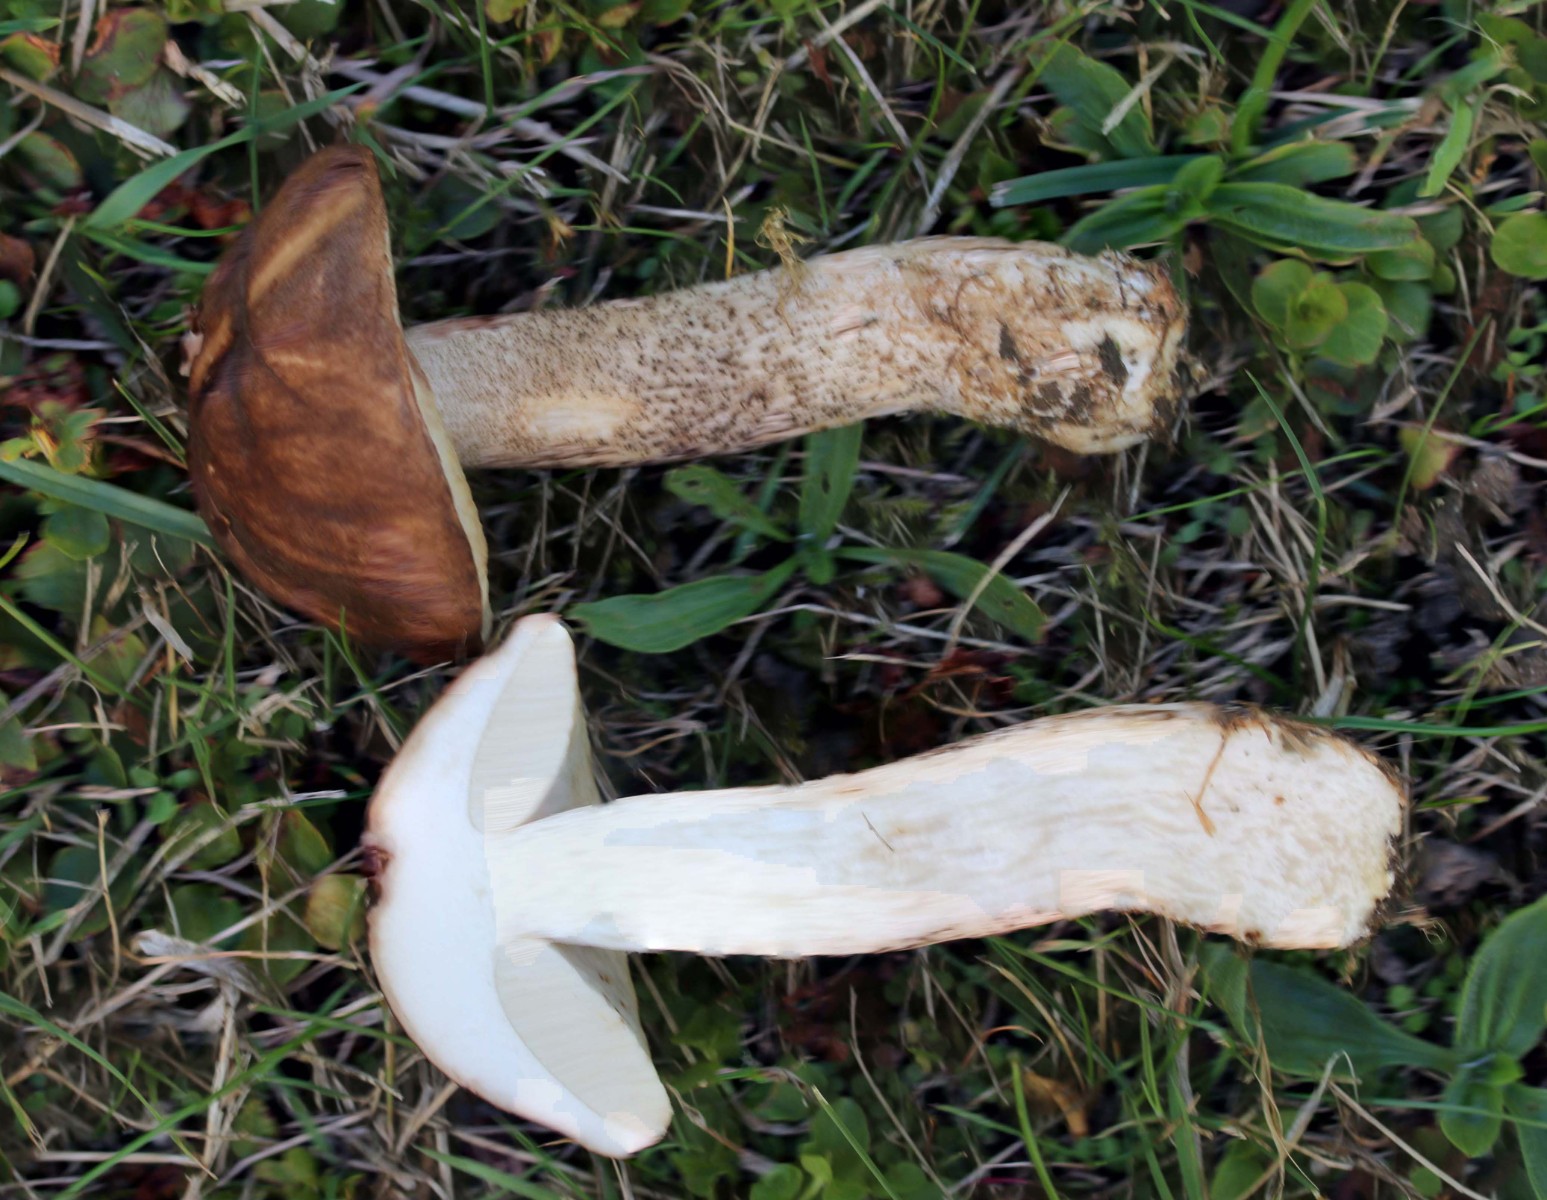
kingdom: Fungi
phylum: Basidiomycota
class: Agaricomycetes
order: Boletales
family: Boletaceae
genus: Leccinum
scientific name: Leccinum scabrum
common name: brun skælrørhat
